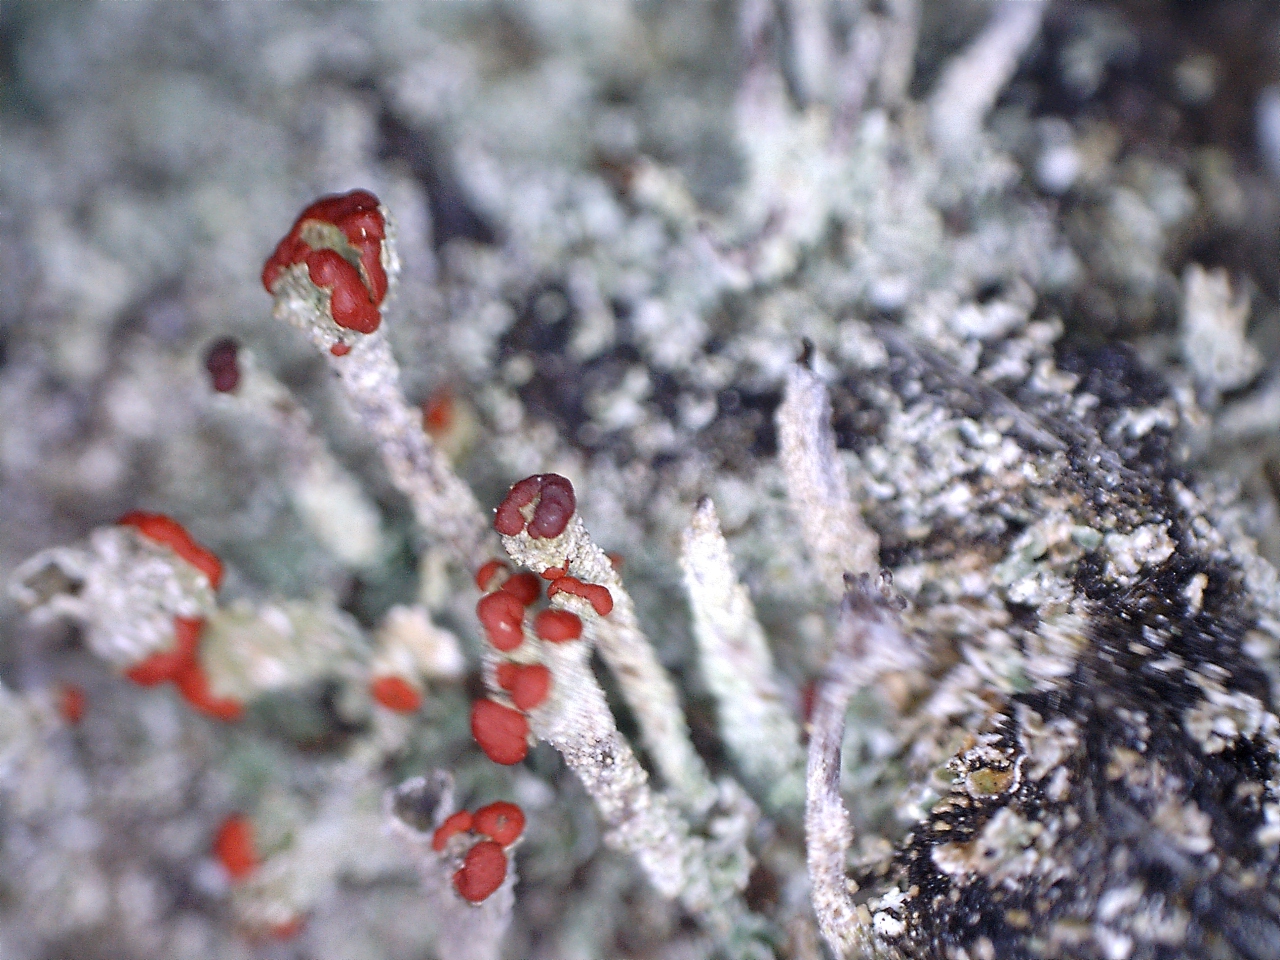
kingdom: Fungi
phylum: Ascomycota
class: Lecanoromycetes
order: Lecanorales
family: Cladoniaceae
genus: Cladonia
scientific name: Cladonia floerkeana
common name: lakrød bægerlav
